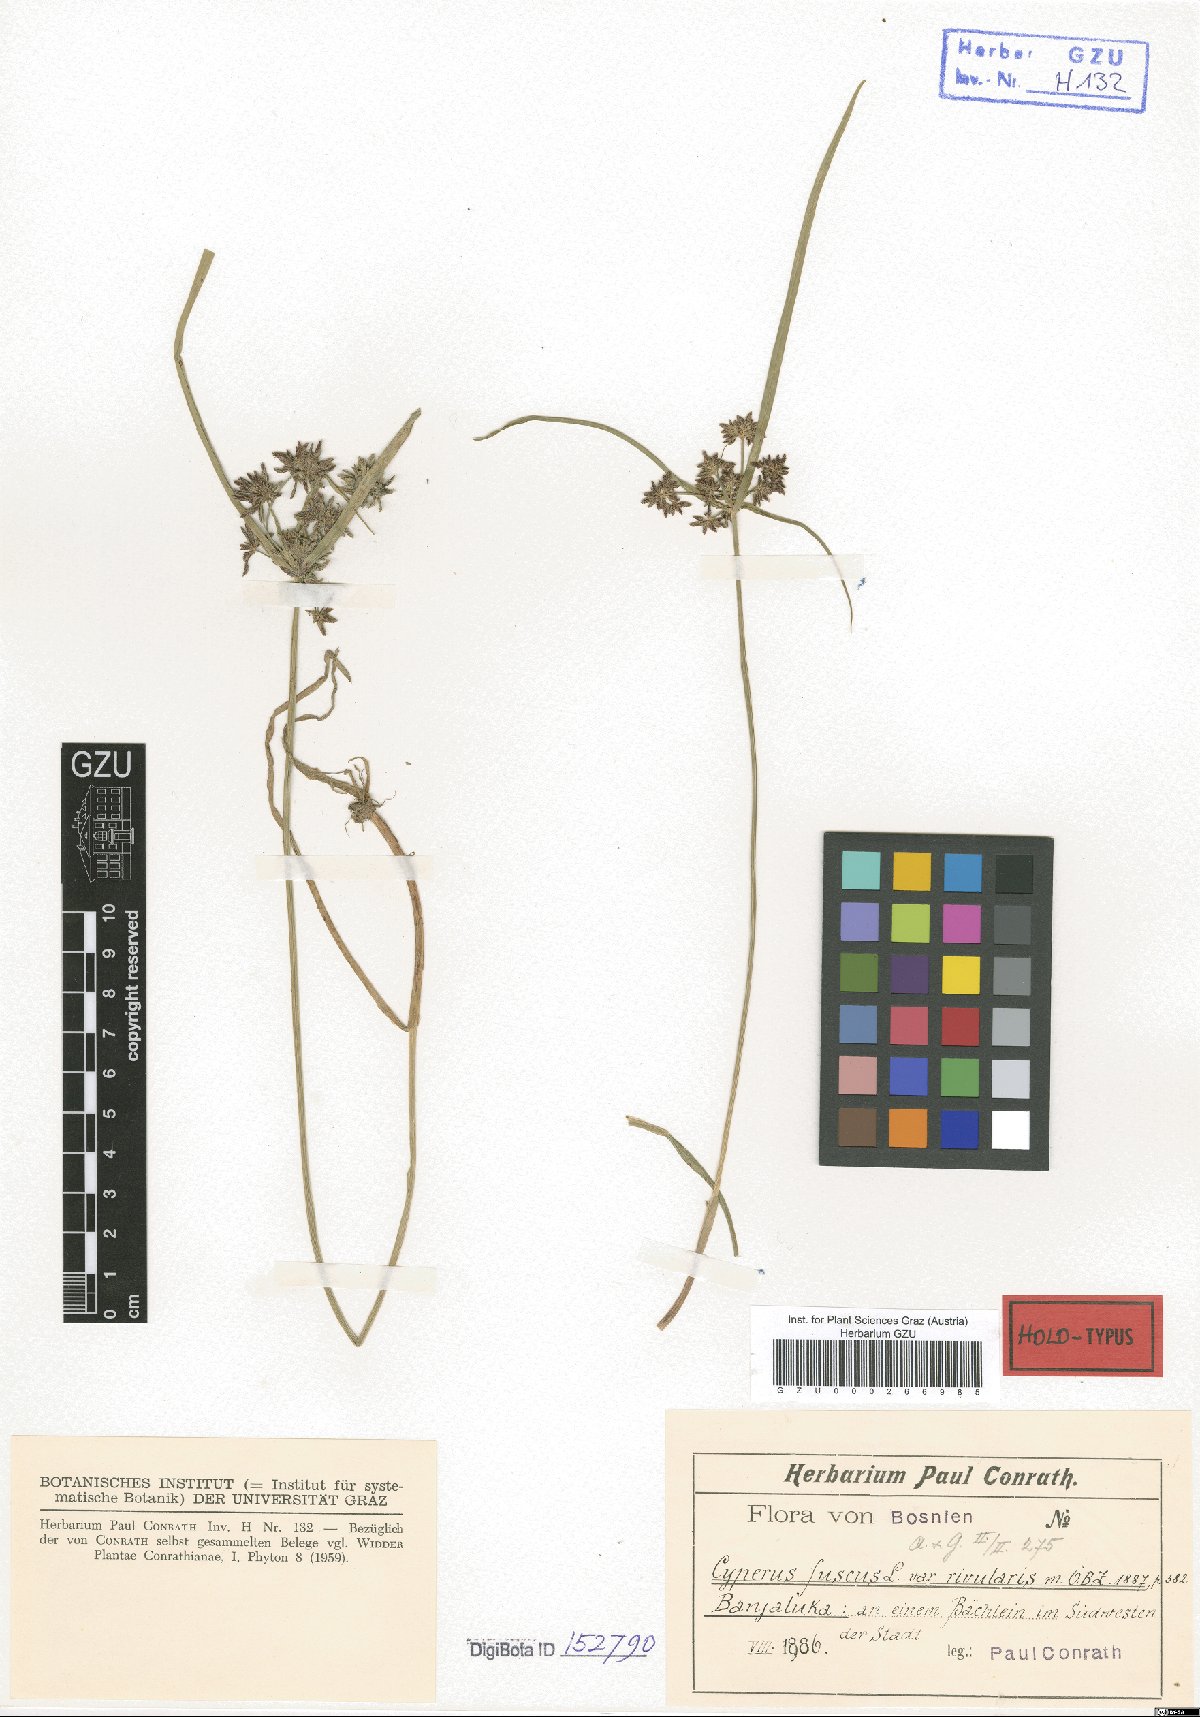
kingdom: Plantae
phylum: Tracheophyta
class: Liliopsida
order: Poales
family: Cyperaceae
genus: Cyperus
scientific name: Cyperus fuscus
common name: Brown galingale
